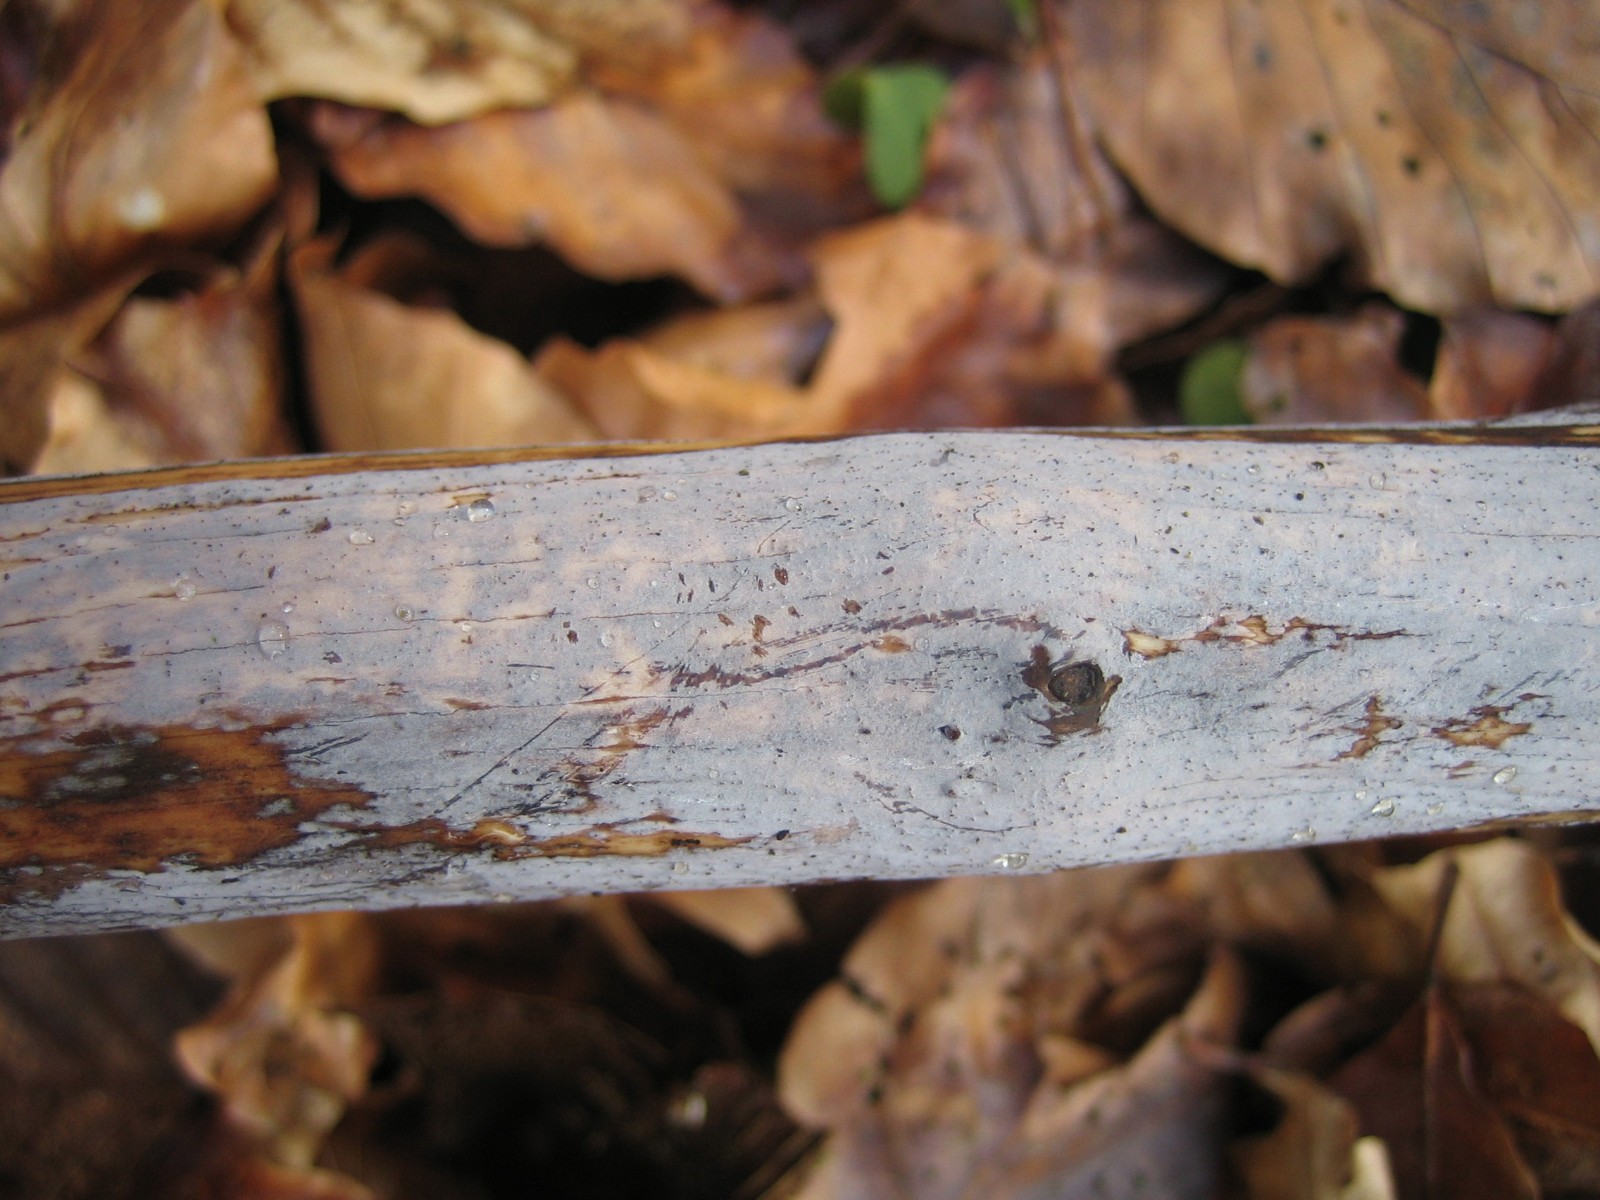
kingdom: Fungi
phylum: Basidiomycota
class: Tremellomycetes
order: Tremellales
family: Exidiaceae
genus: Exidiopsis
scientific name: Exidiopsis effusa
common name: smuk bævrehinde
